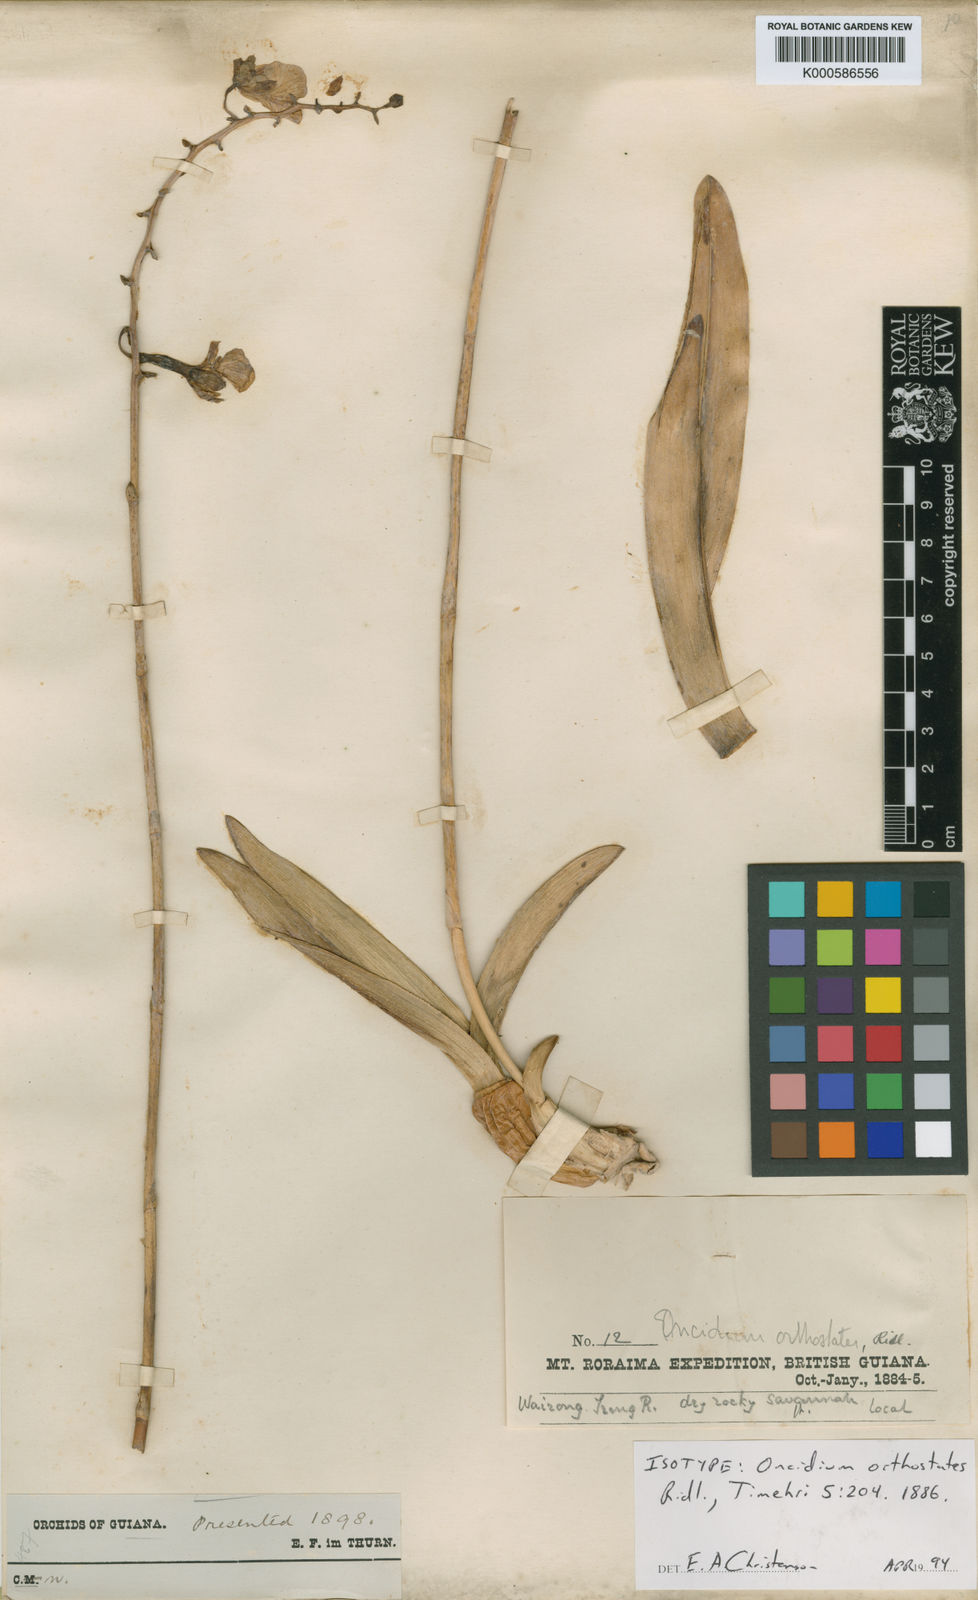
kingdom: Plantae
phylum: Tracheophyta
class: Liliopsida
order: Asparagales
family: Orchidaceae
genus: Nohawilliamsia
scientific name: Nohawilliamsia pirarensis
